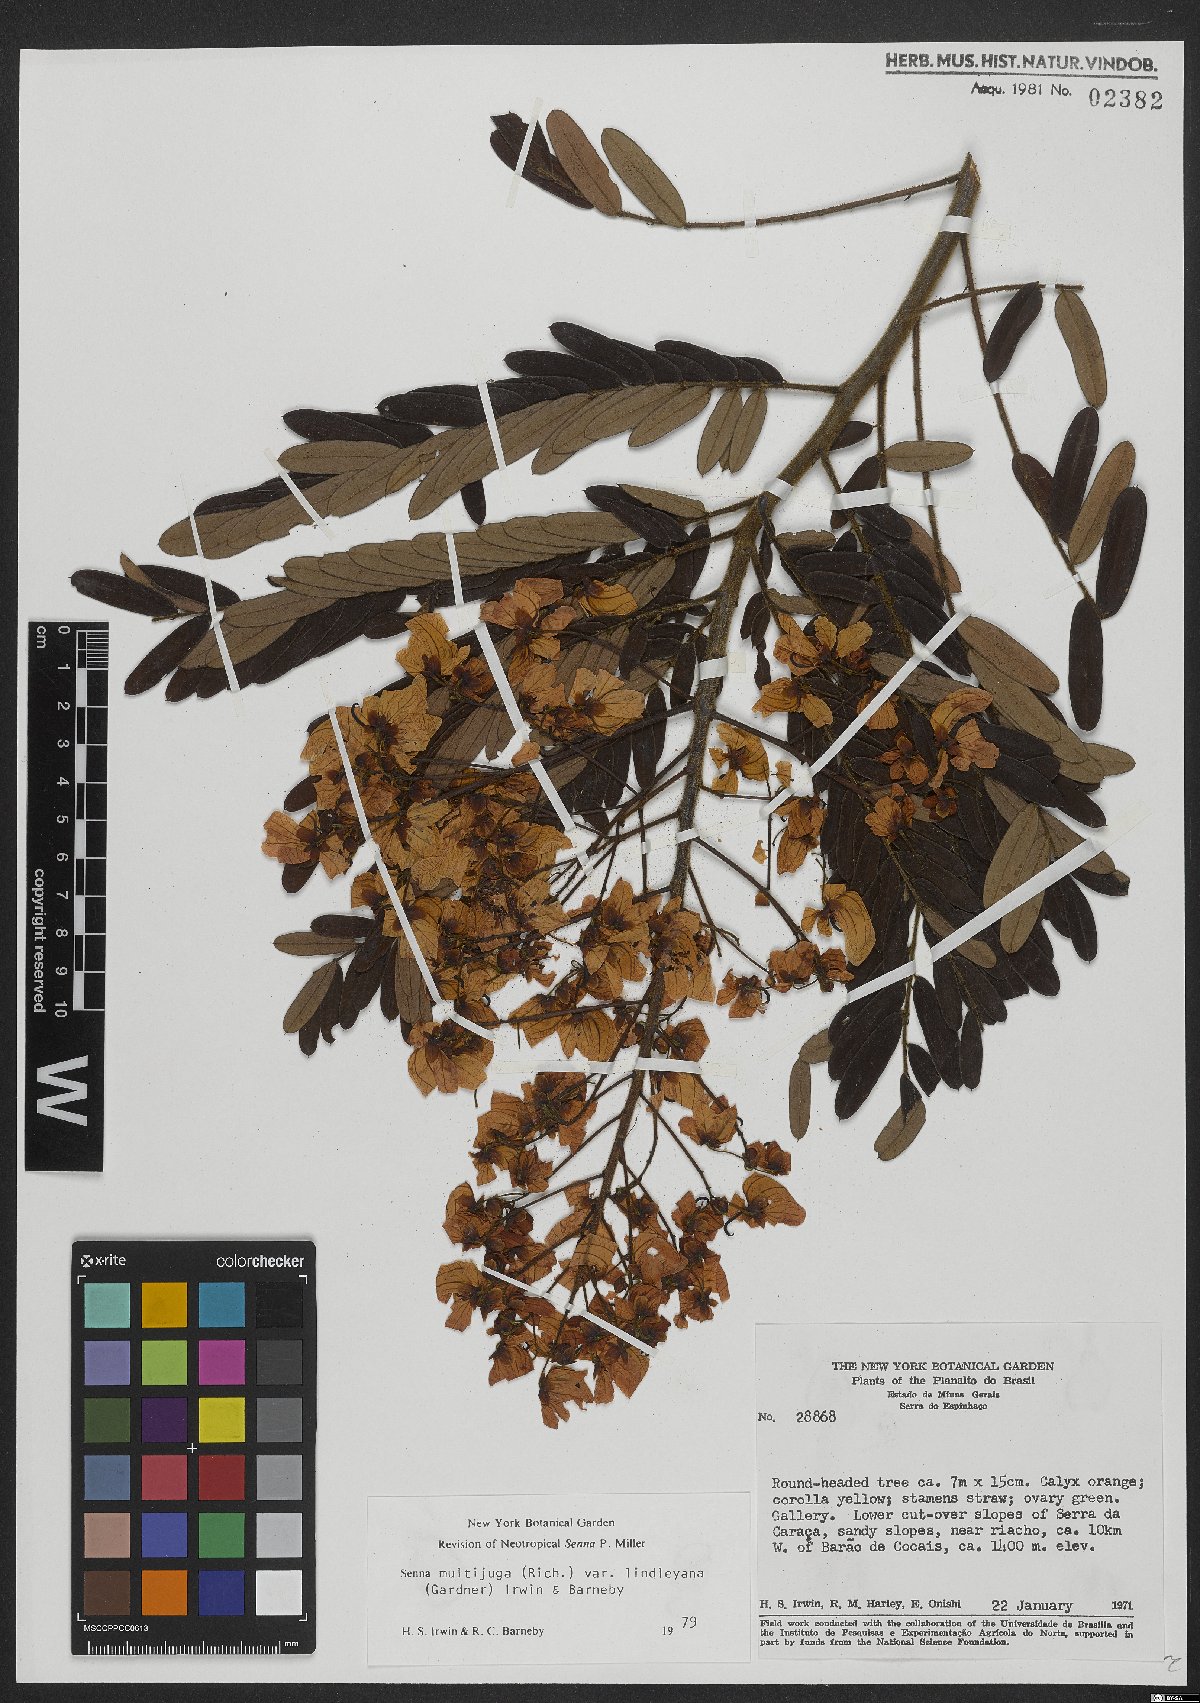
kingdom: Plantae
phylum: Tracheophyta
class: Magnoliopsida
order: Fabales
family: Fabaceae
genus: Senna
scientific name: Senna multijuga
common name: False sicklepod
